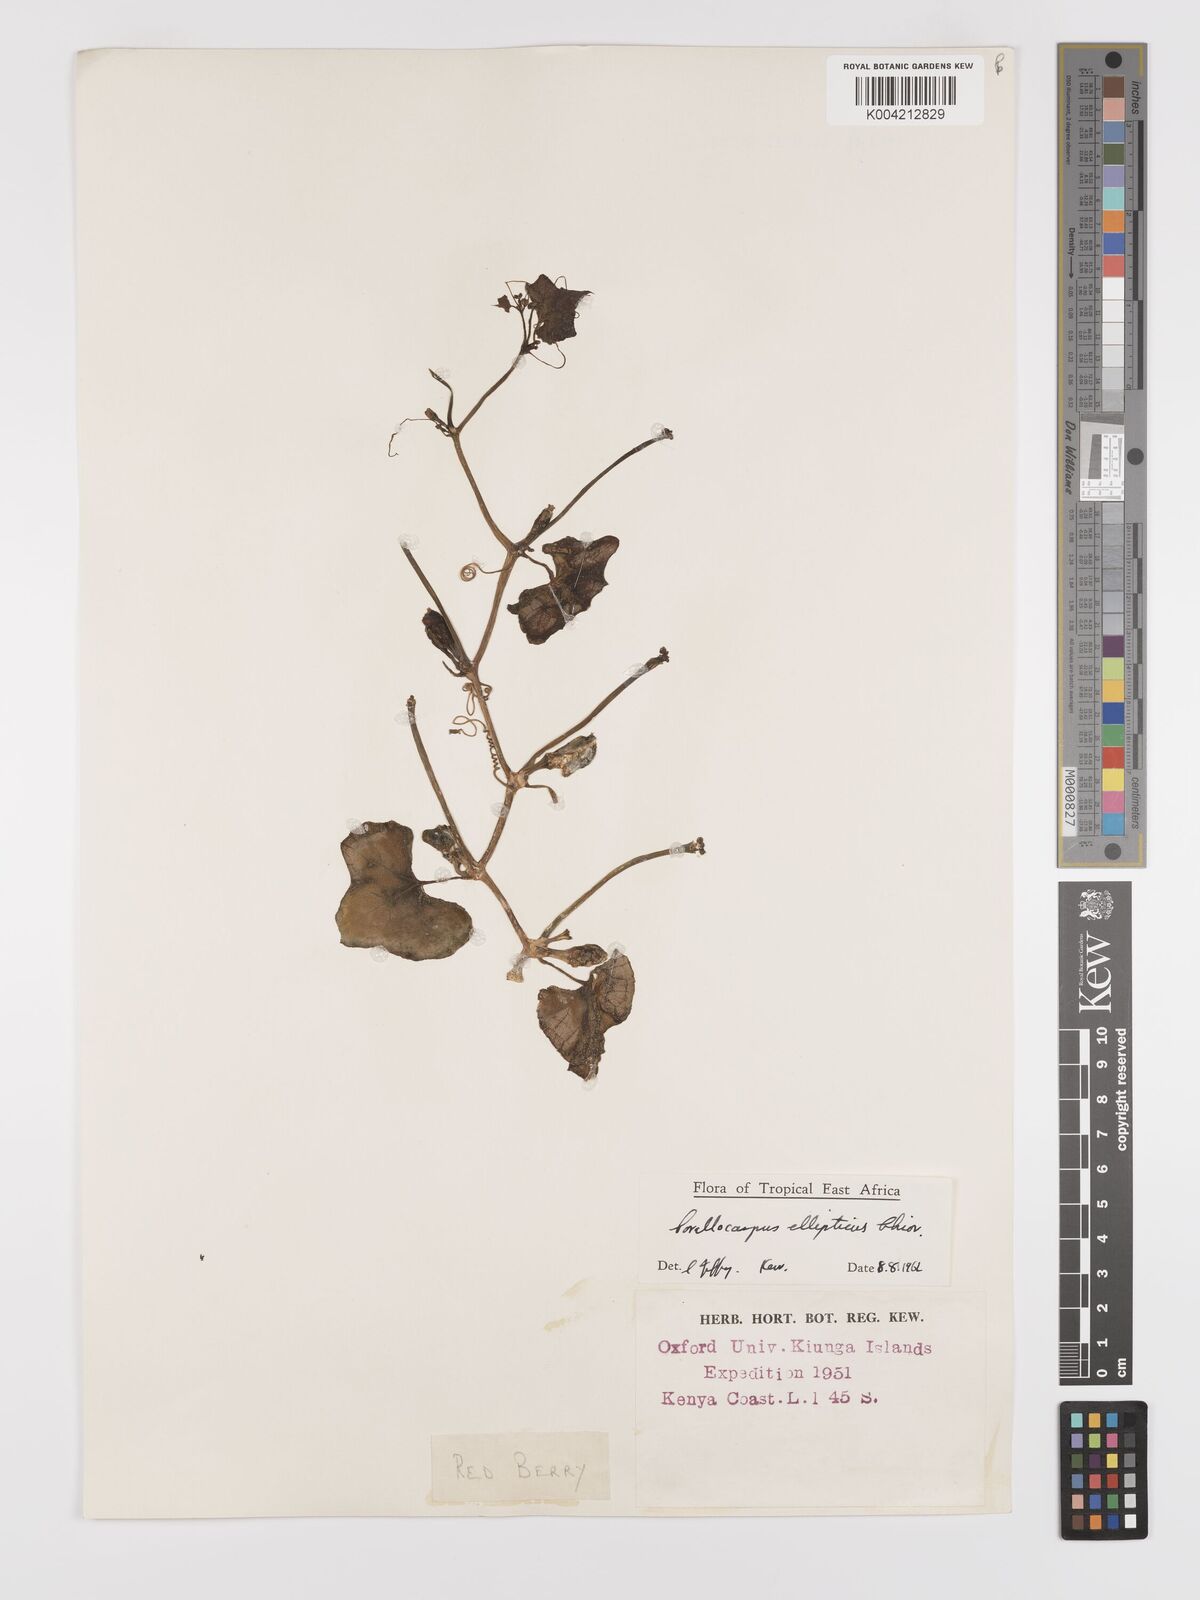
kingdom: Plantae
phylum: Tracheophyta
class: Magnoliopsida
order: Cucurbitales
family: Cucurbitaceae
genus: Corallocarpus
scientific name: Corallocarpus ellipticus
